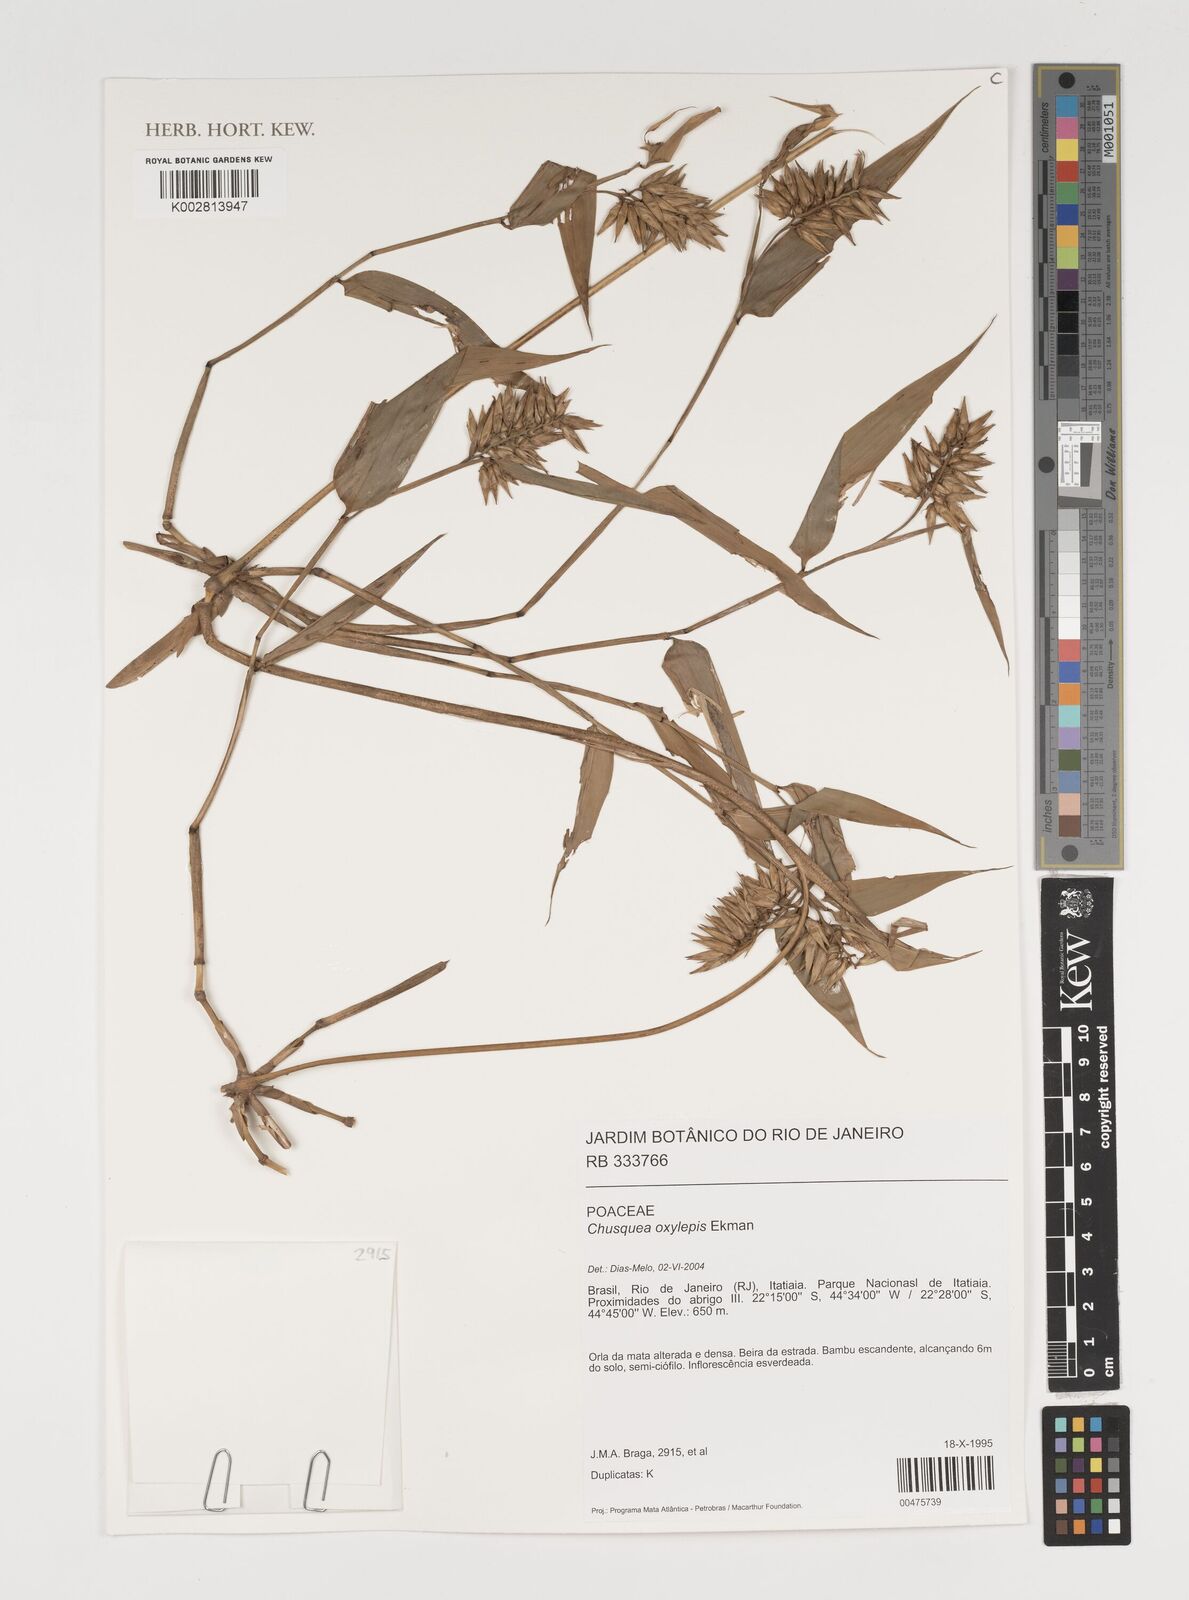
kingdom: Plantae
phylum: Tracheophyta
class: Liliopsida
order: Poales
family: Poaceae
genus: Chusquea
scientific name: Chusquea oxylepis
